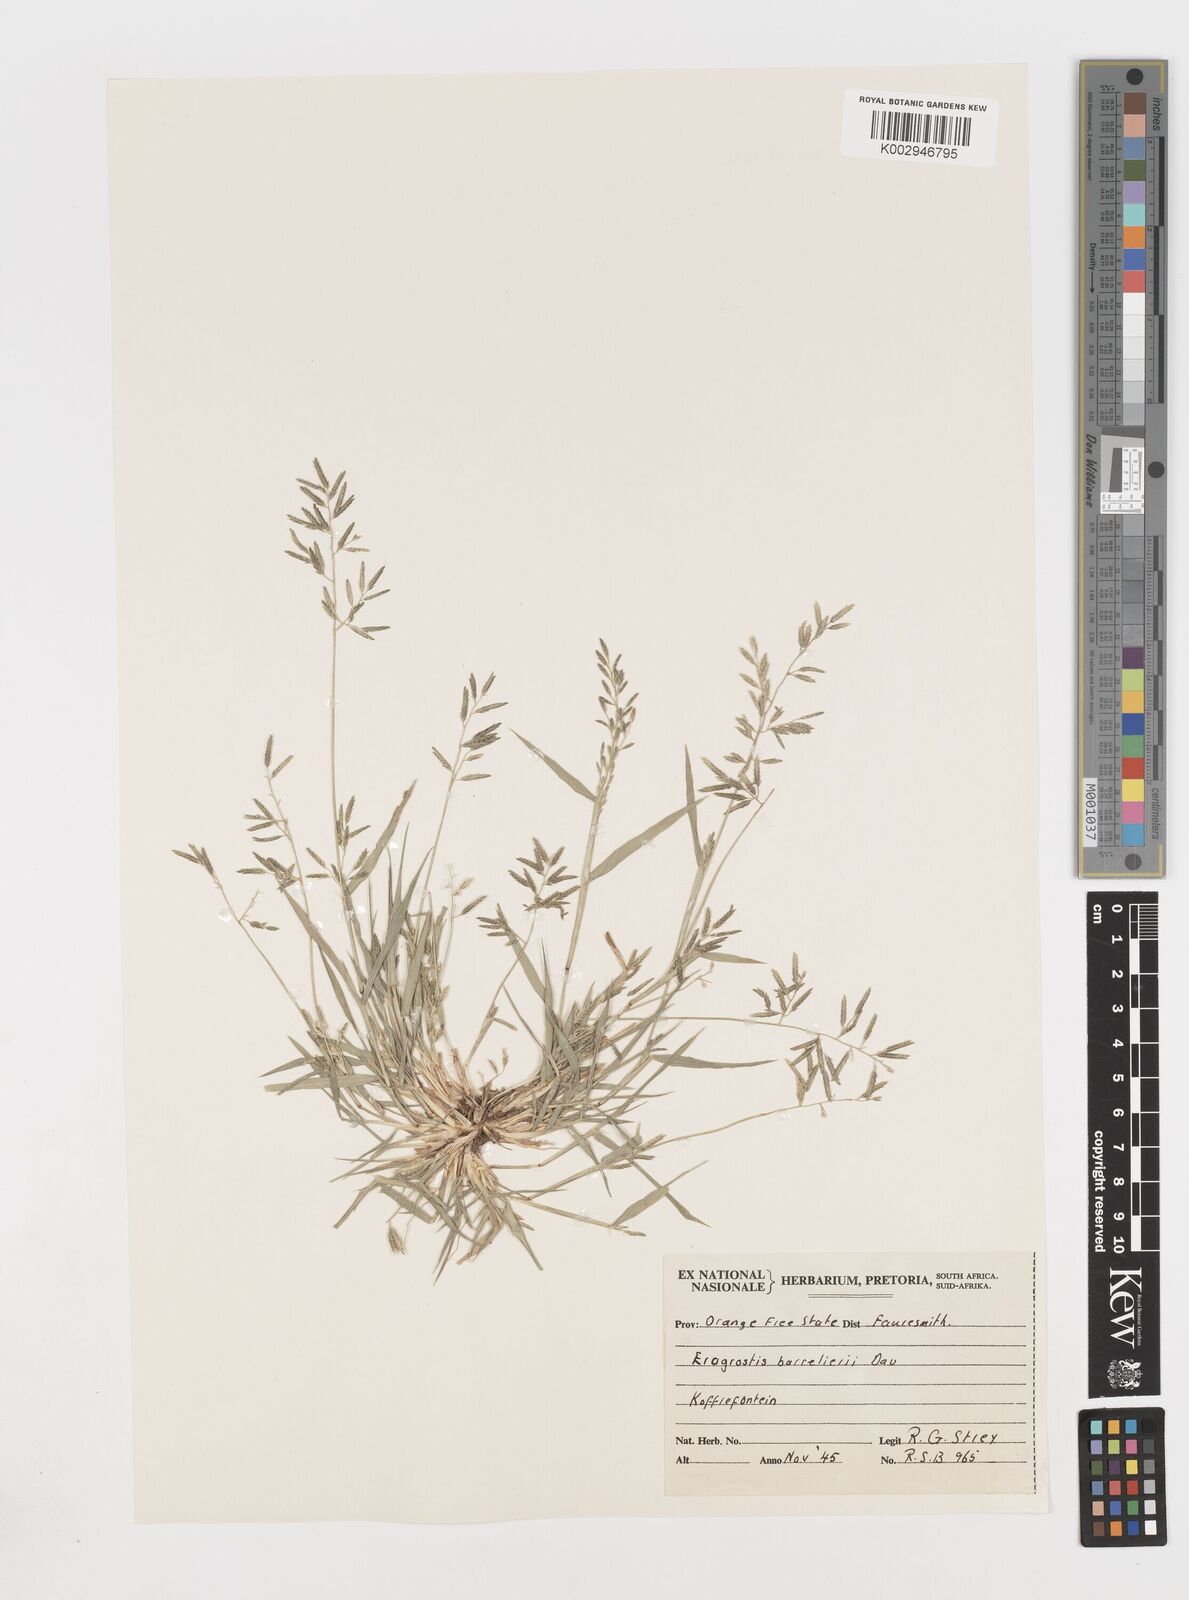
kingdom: Plantae
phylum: Tracheophyta
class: Liliopsida
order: Poales
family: Poaceae
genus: Eragrostis
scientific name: Eragrostis barrelieri
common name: Mediterranean lovegrass
